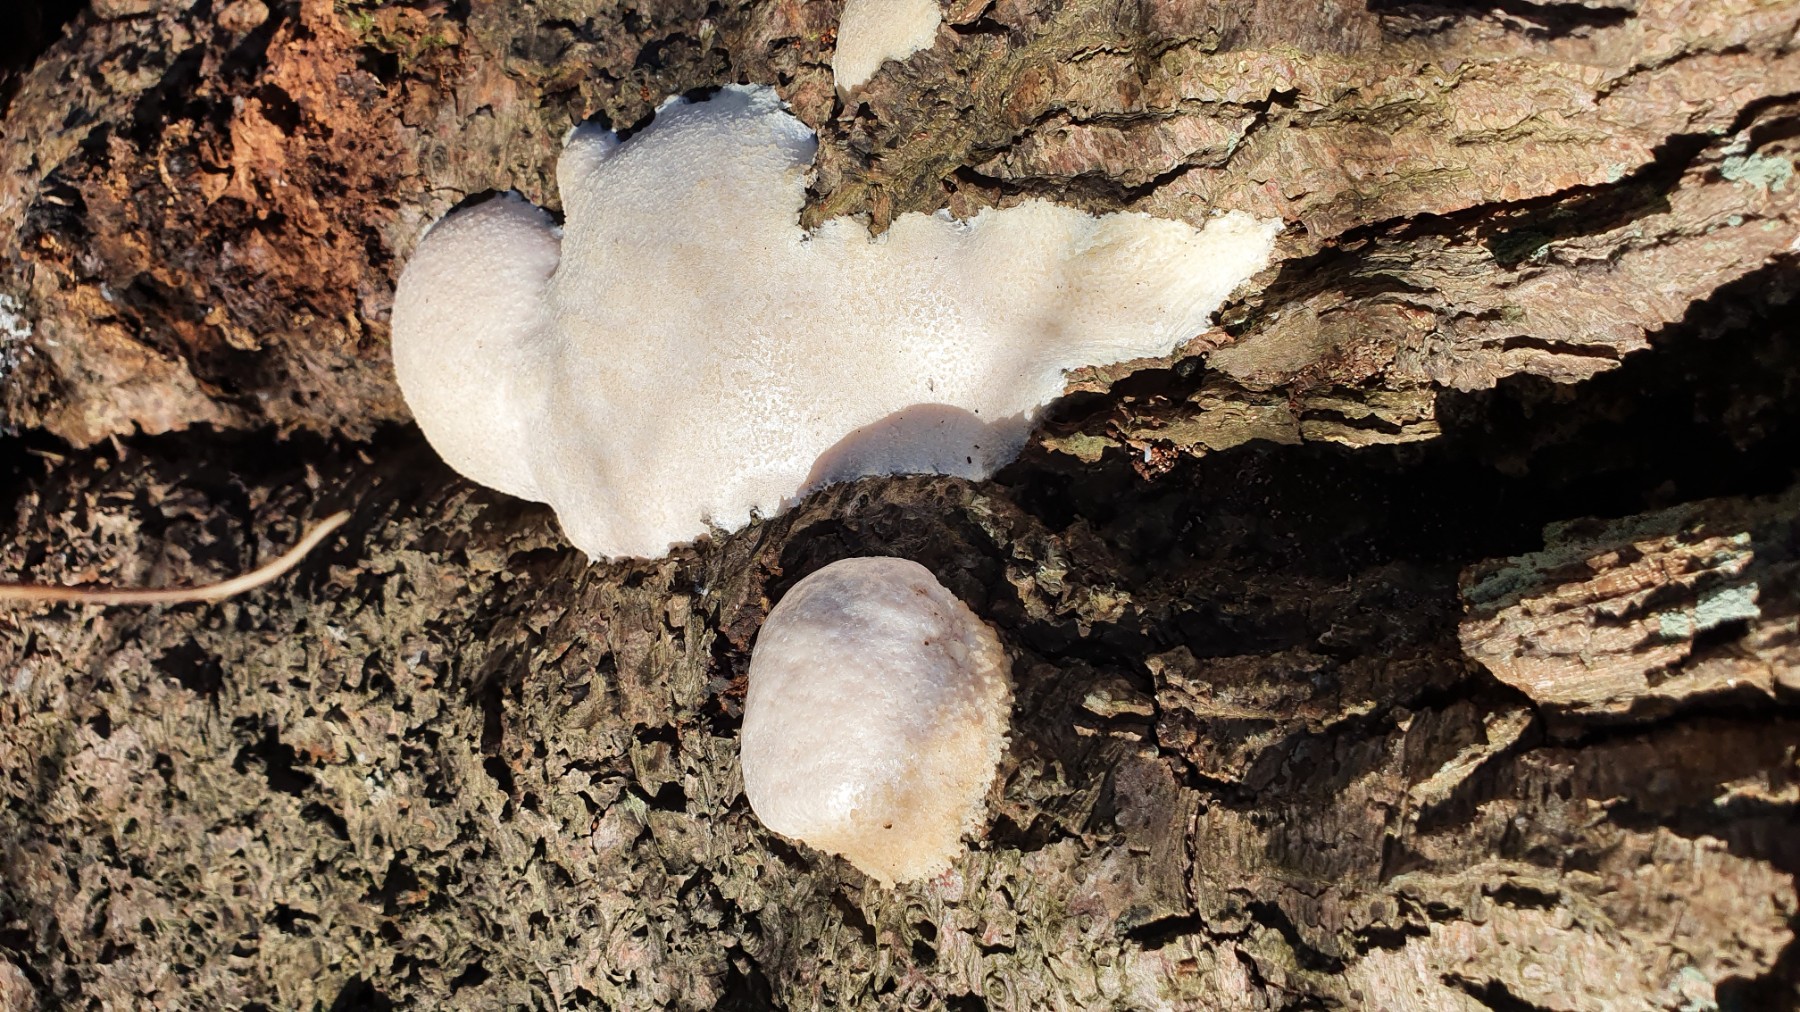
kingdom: Protozoa
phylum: Mycetozoa
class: Myxomycetes
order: Cribrariales
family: Tubiferaceae
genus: Reticularia
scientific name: Reticularia lycoperdon
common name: skinnende støvpude
